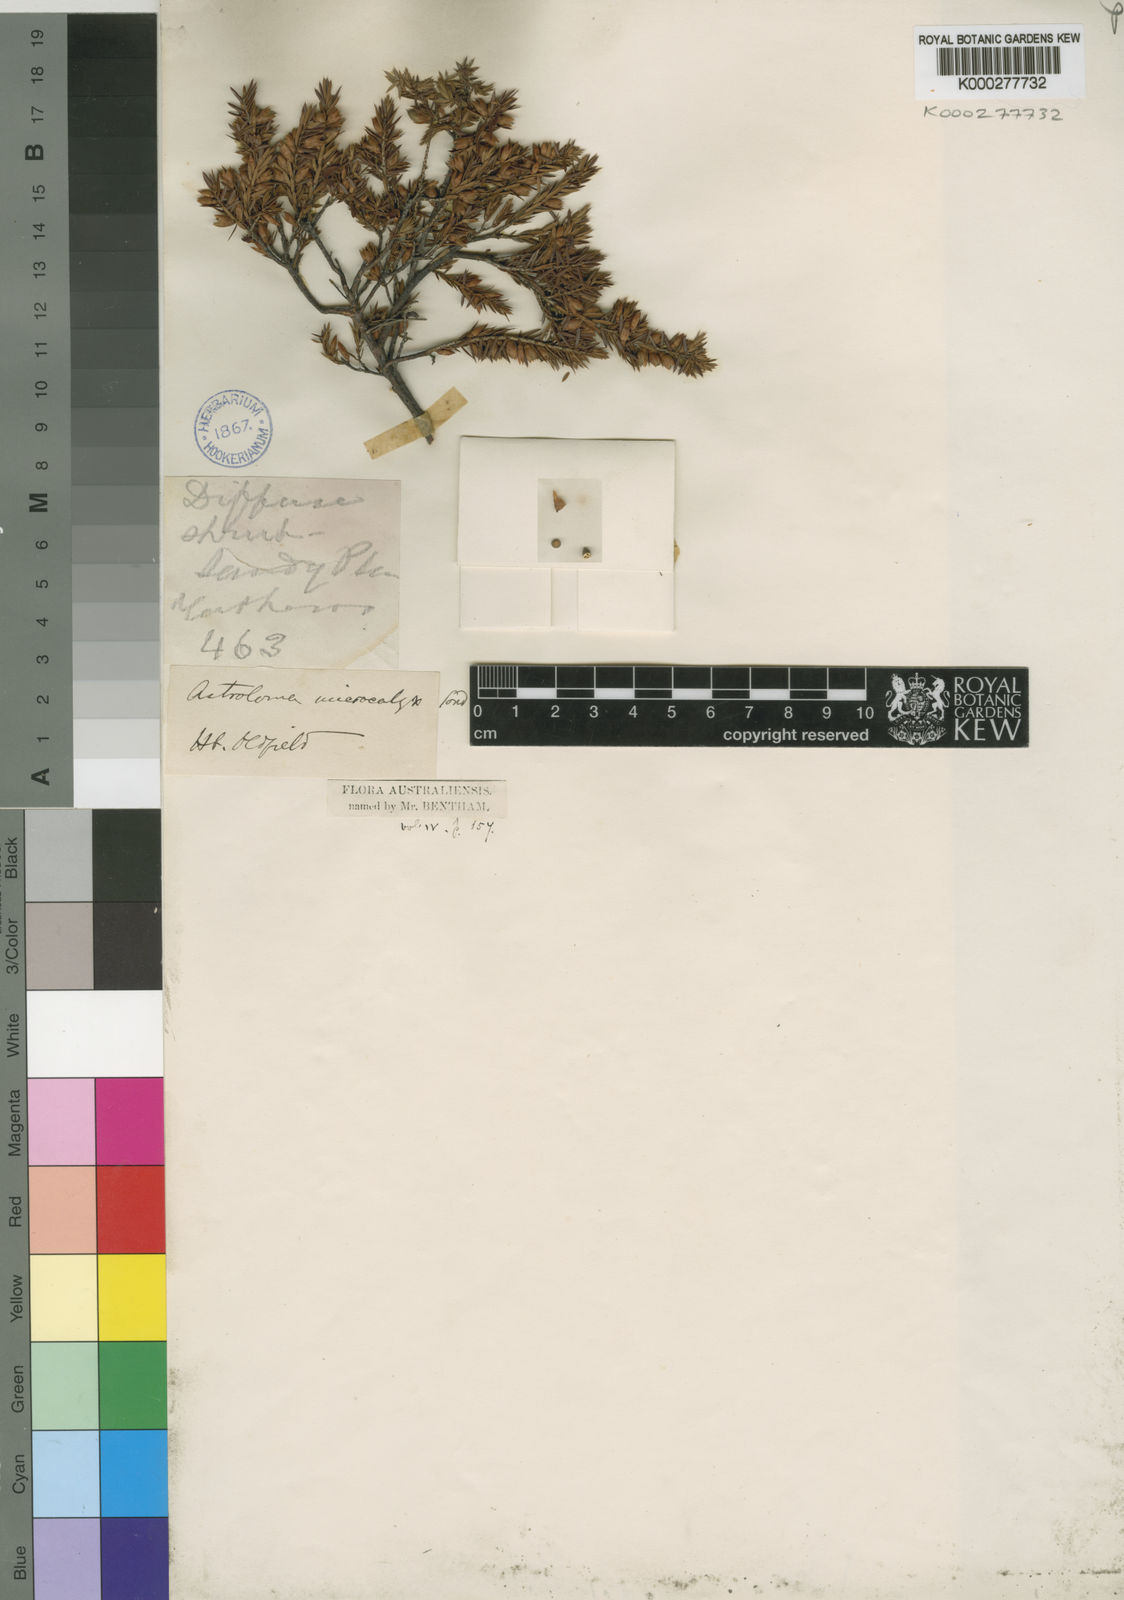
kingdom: Plantae
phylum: Tracheophyta
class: Magnoliopsida
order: Ericales
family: Ericaceae
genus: Styphelia
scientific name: Styphelia microcalyx
